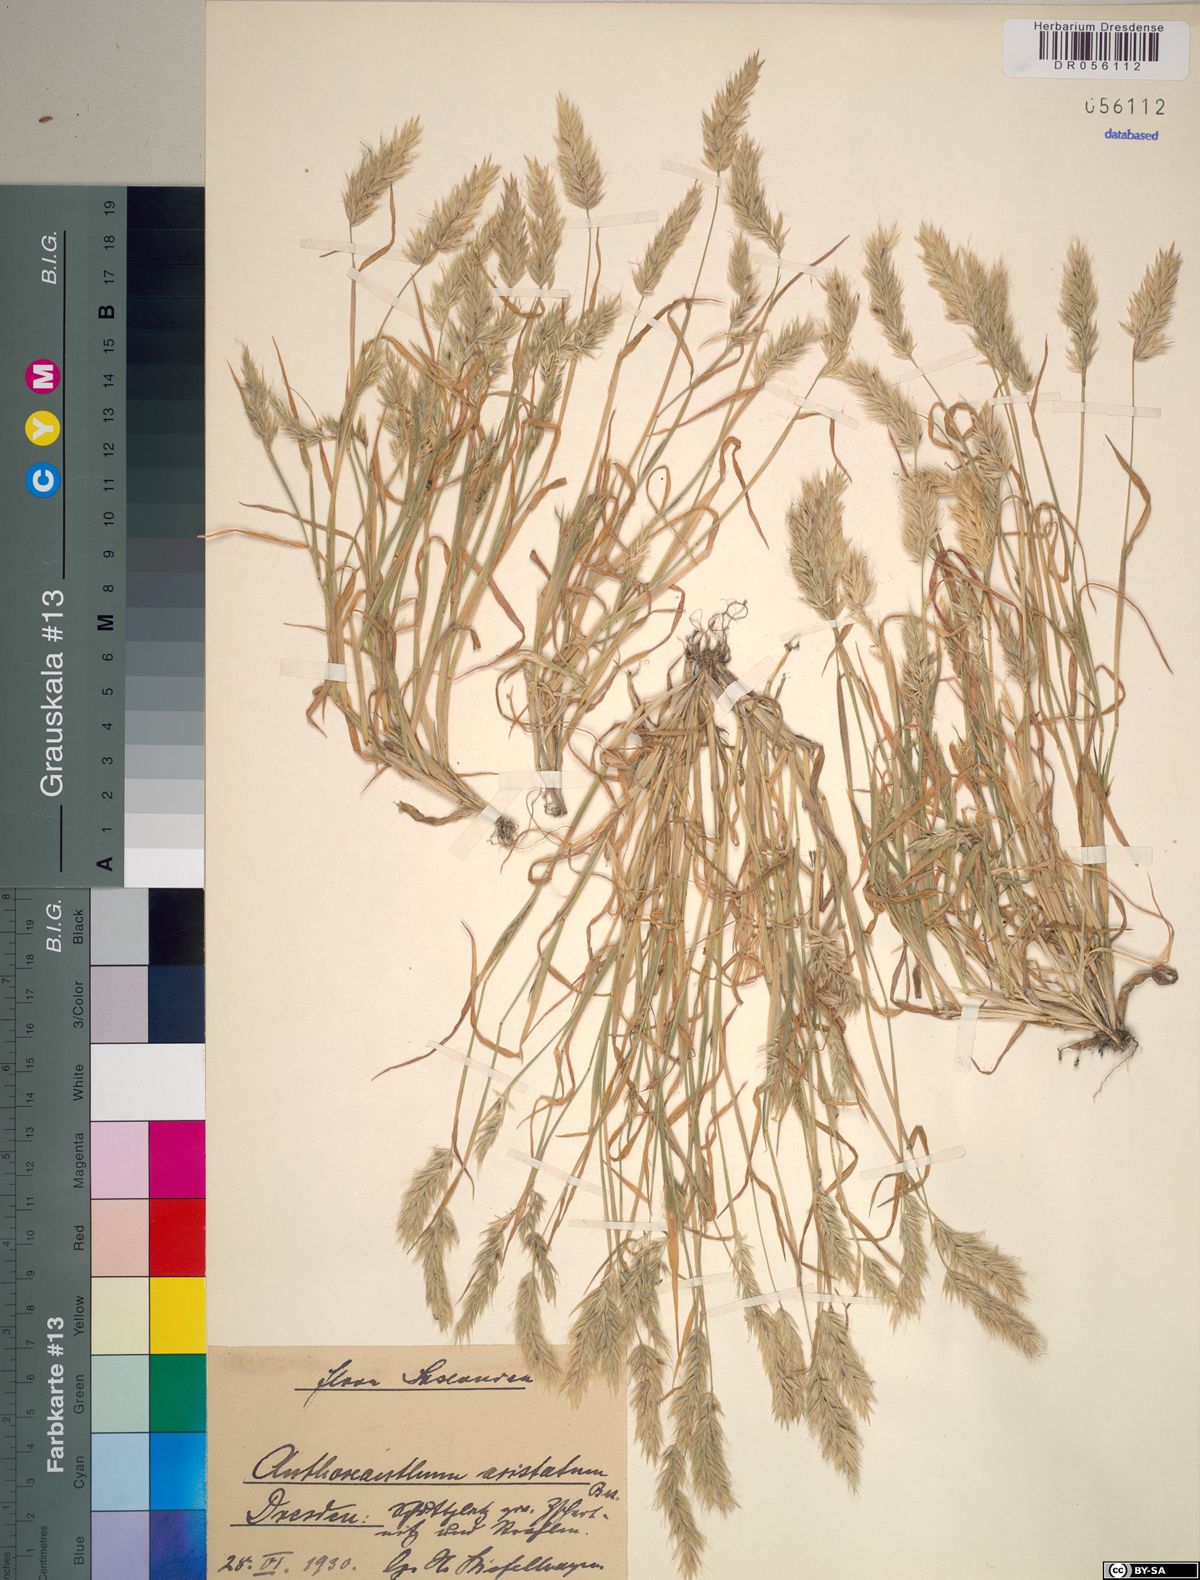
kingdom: Plantae
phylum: Tracheophyta
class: Liliopsida
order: Poales
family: Poaceae
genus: Anthoxanthum
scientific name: Anthoxanthum aristatum
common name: Annual vernal-grass
